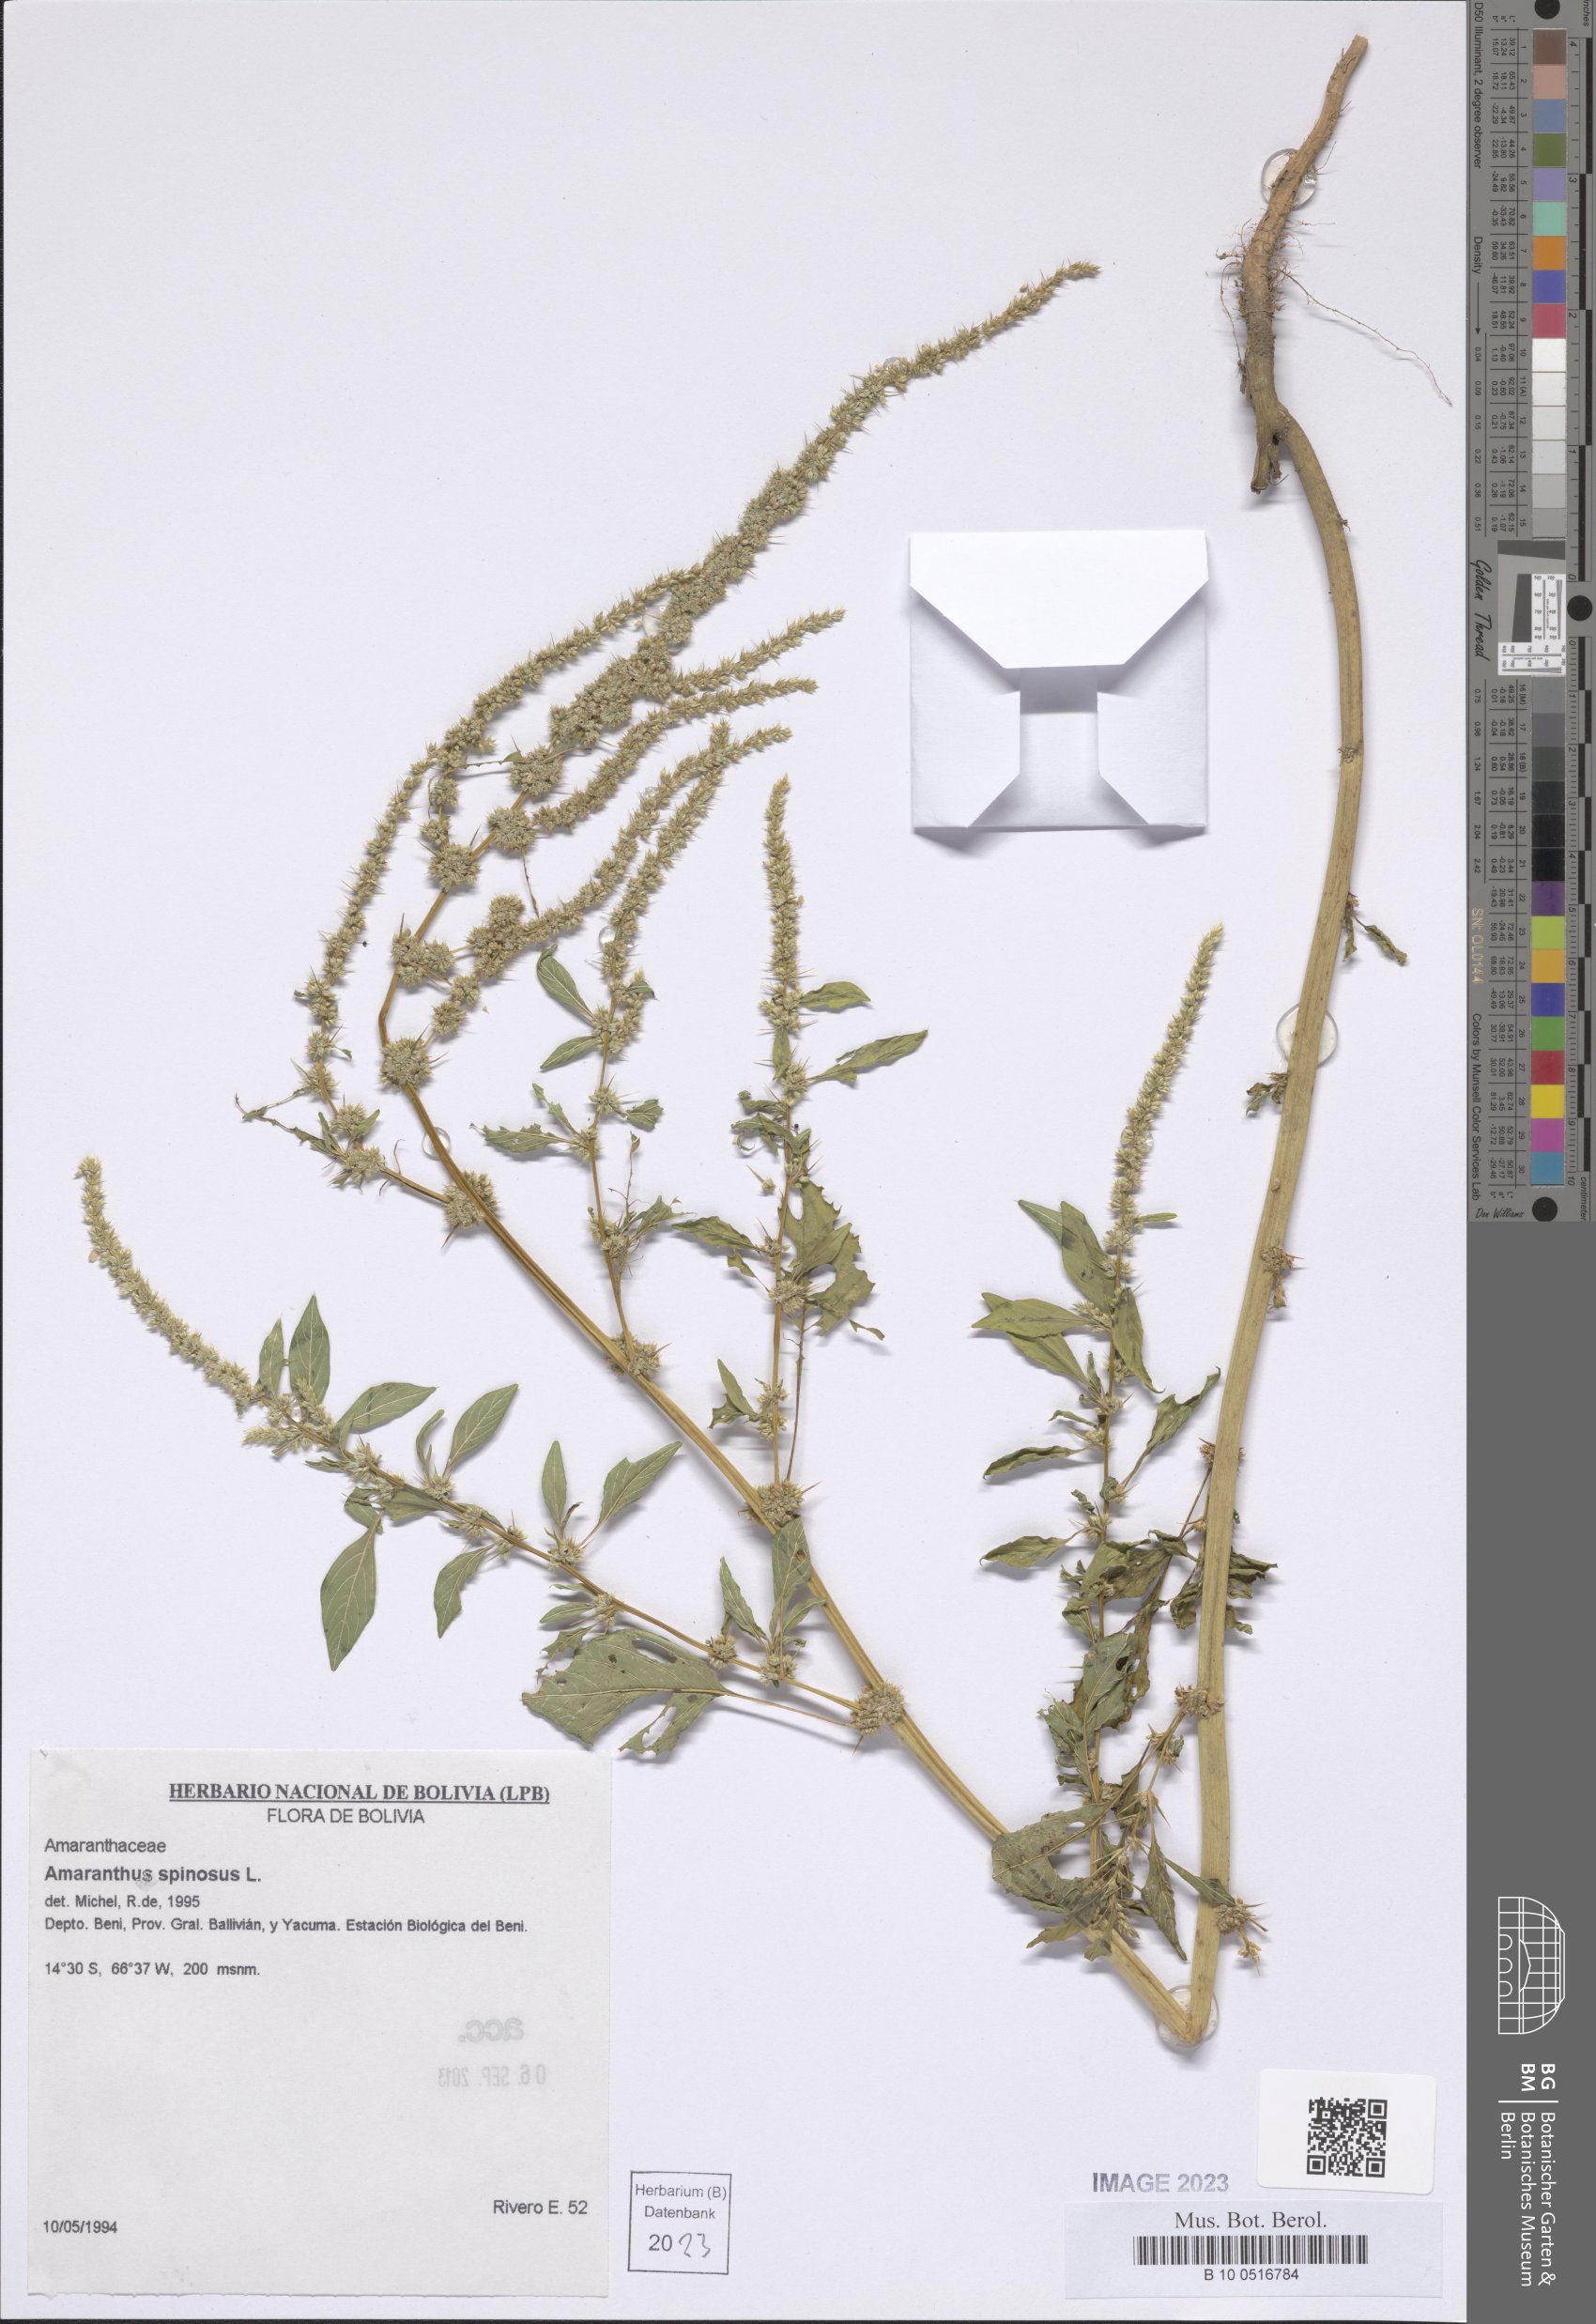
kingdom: Plantae
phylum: Tracheophyta
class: Magnoliopsida
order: Caryophyllales
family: Amaranthaceae
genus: Amaranthus
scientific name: Amaranthus spinosus
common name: Spiny amaranth
